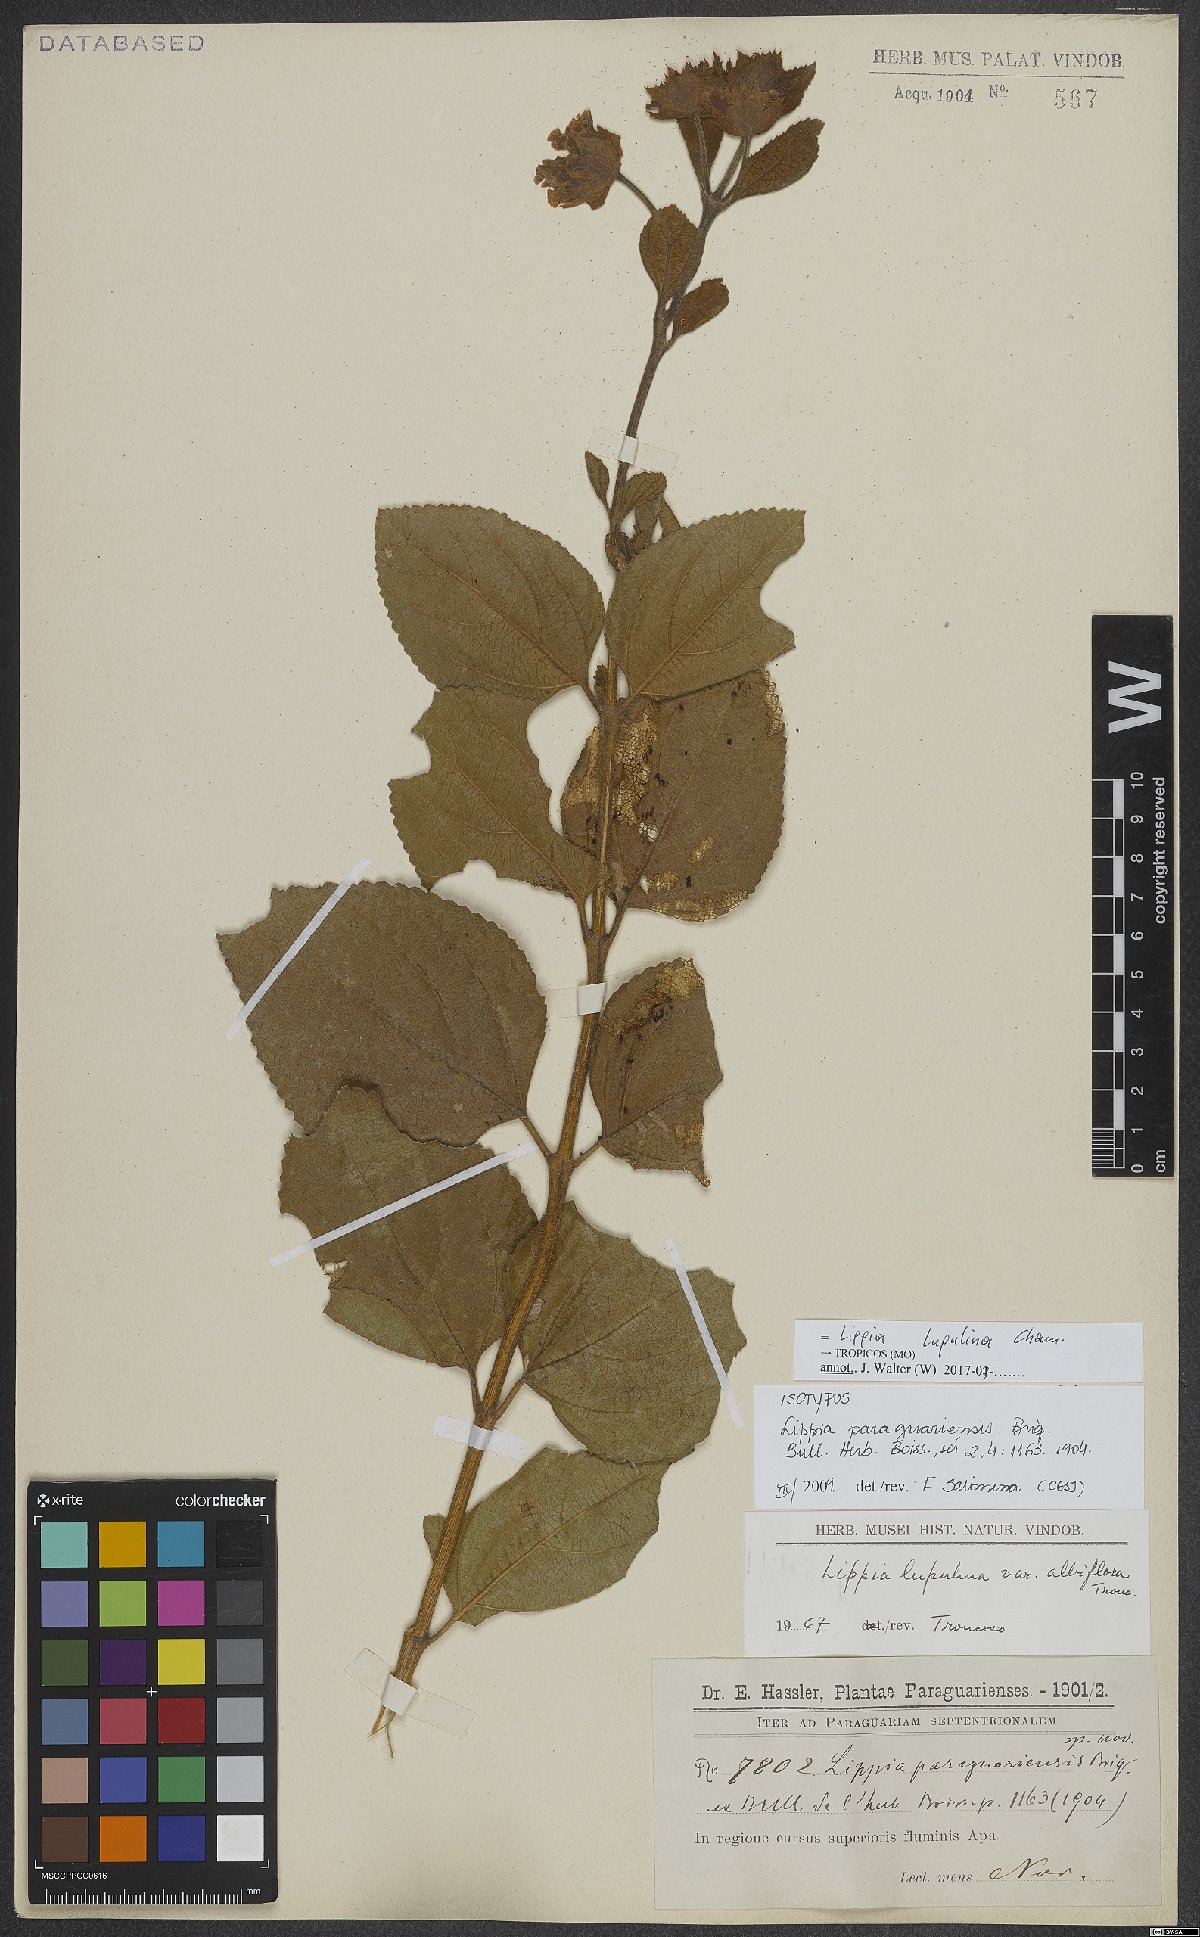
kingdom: Plantae
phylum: Tracheophyta
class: Magnoliopsida
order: Lamiales
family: Verbenaceae
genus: Lippia
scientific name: Lippia lupulina
